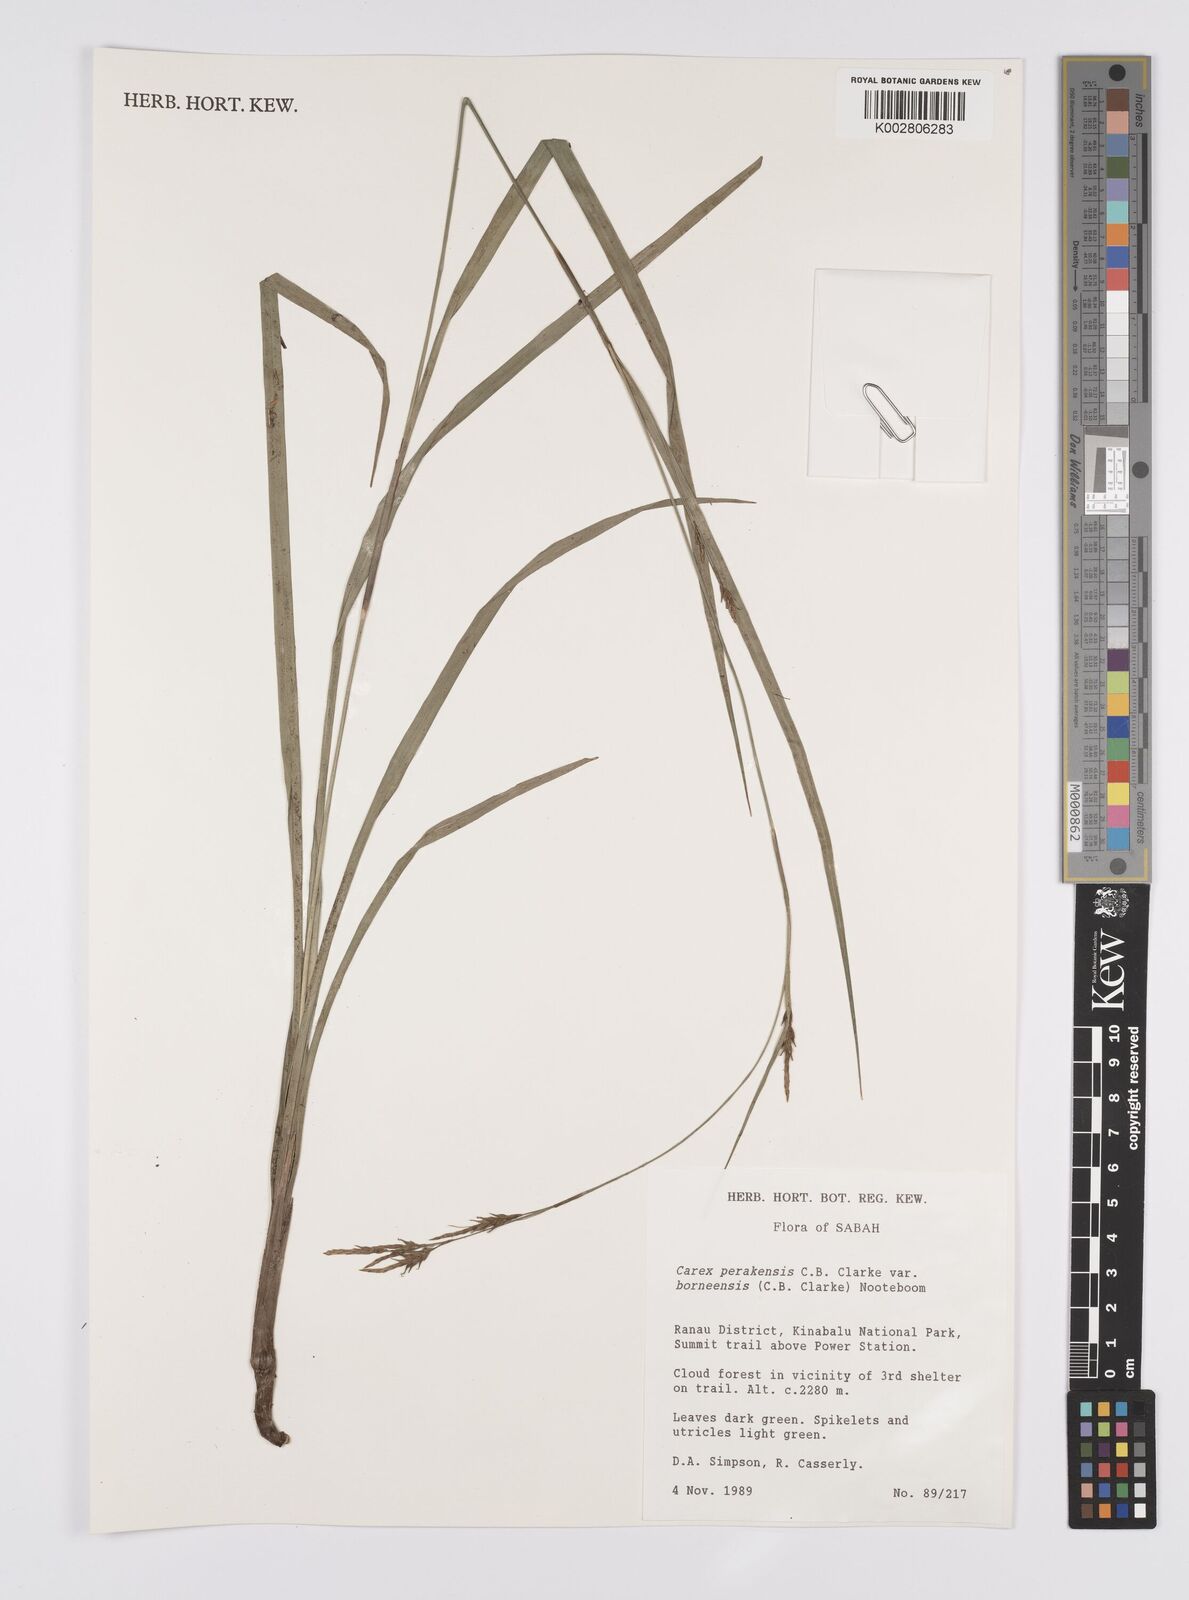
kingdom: Plantae
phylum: Tracheophyta
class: Liliopsida
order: Poales
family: Cyperaceae
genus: Carex
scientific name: Carex perakensis
